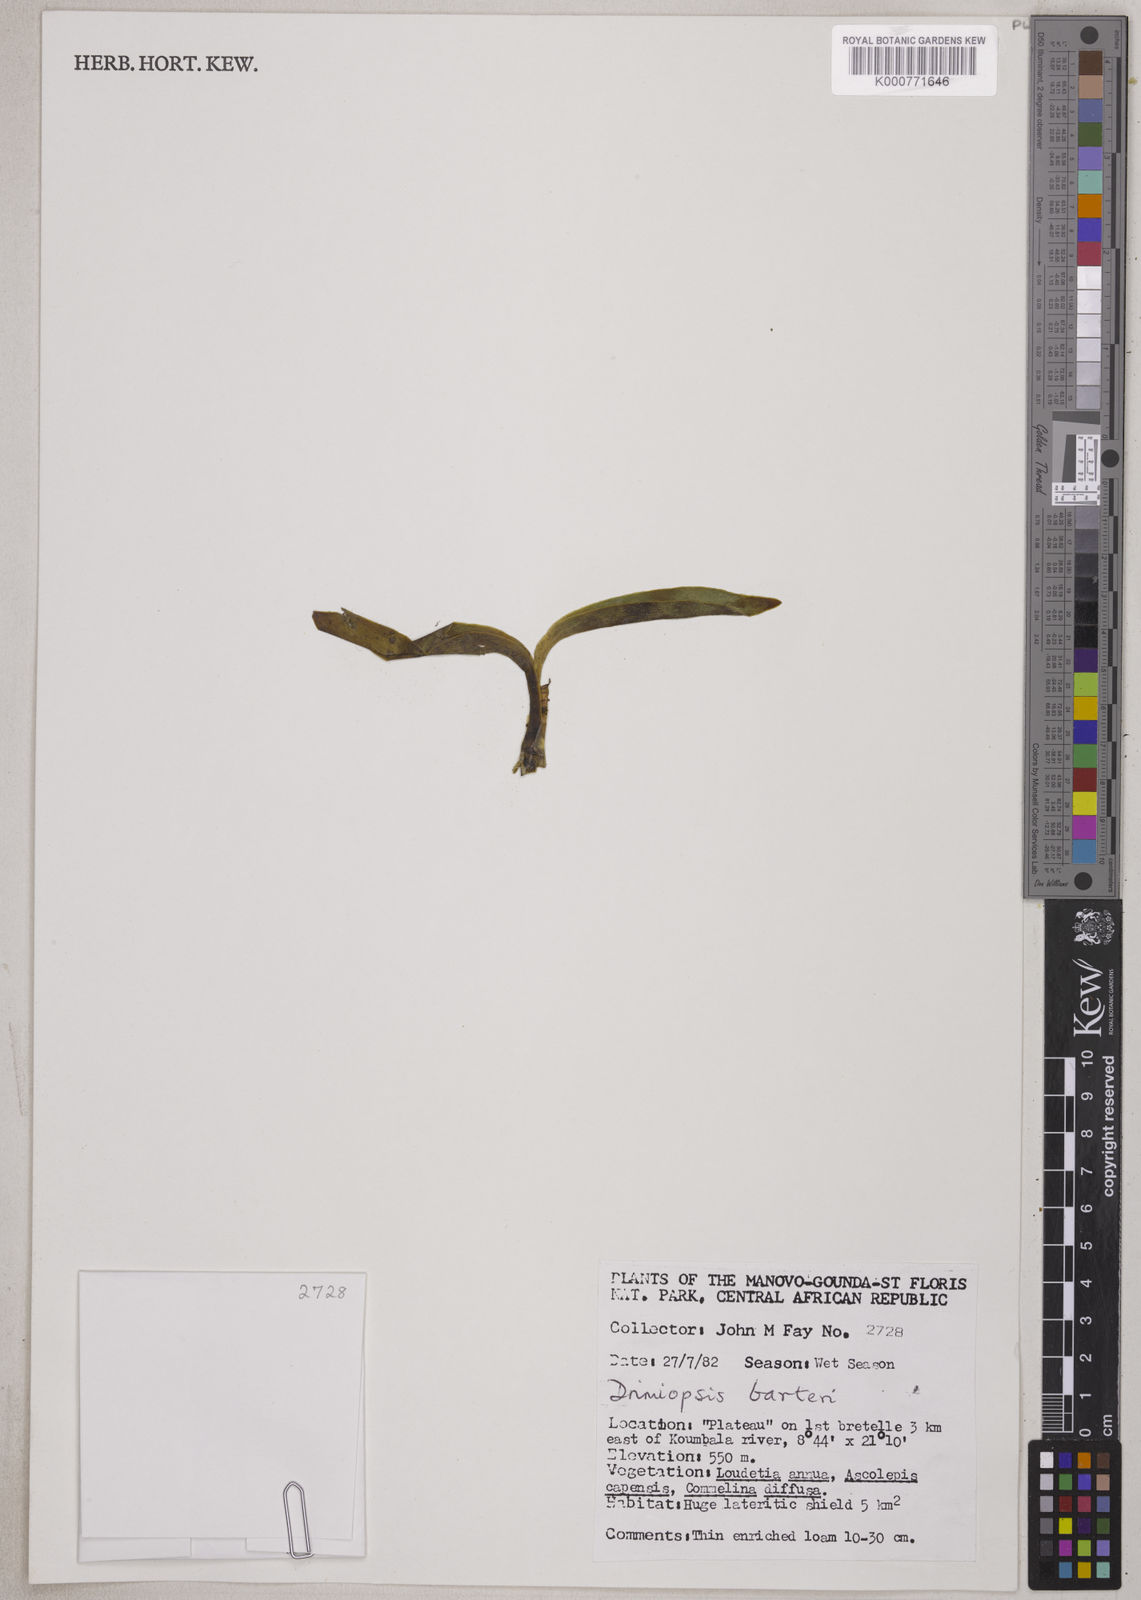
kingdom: Plantae
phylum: Tracheophyta
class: Liliopsida
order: Asparagales
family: Asparagaceae
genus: Drimiopsis
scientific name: Drimiopsis barteri
